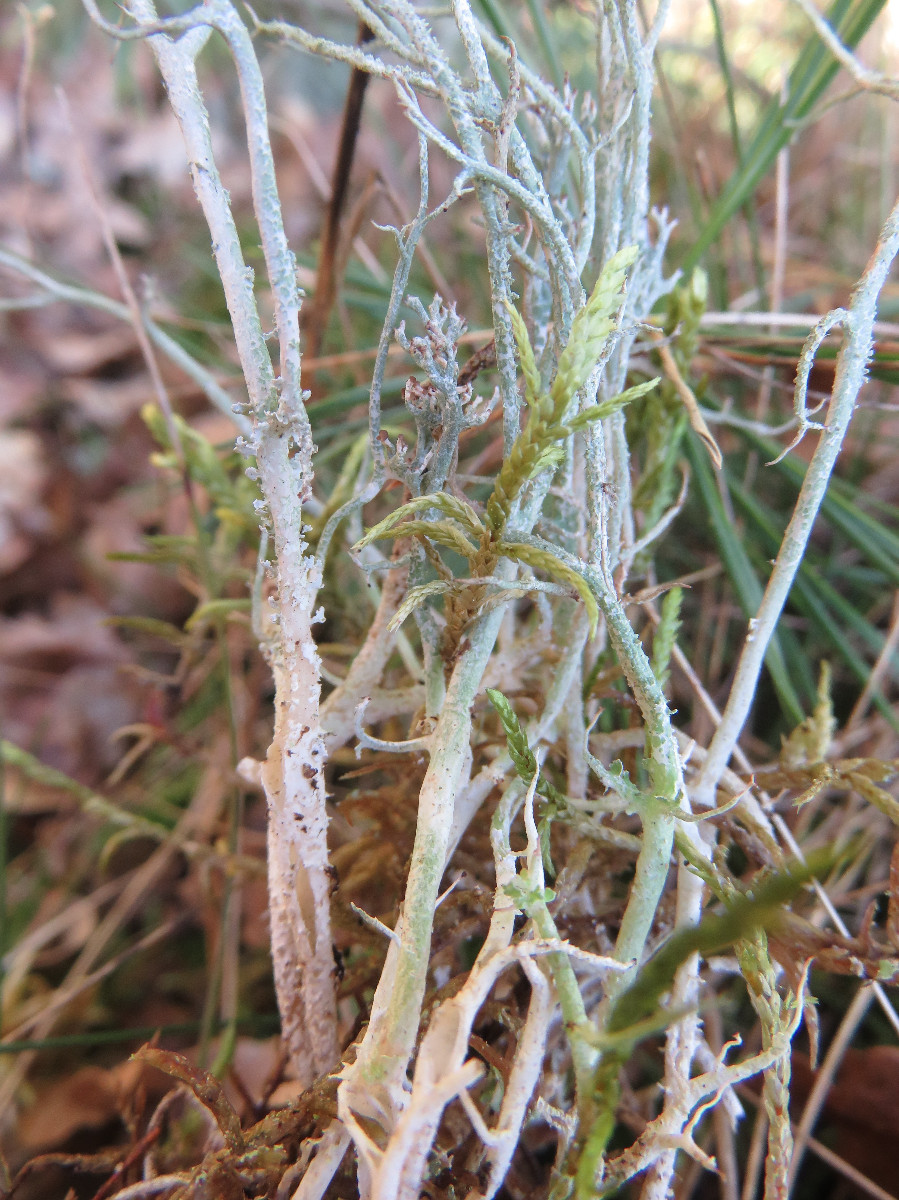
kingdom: Fungi
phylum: Ascomycota
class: Lecanoromycetes
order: Lecanorales
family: Cladoniaceae
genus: Cladonia
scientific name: Cladonia scabriuscula
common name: ru bægerlav
